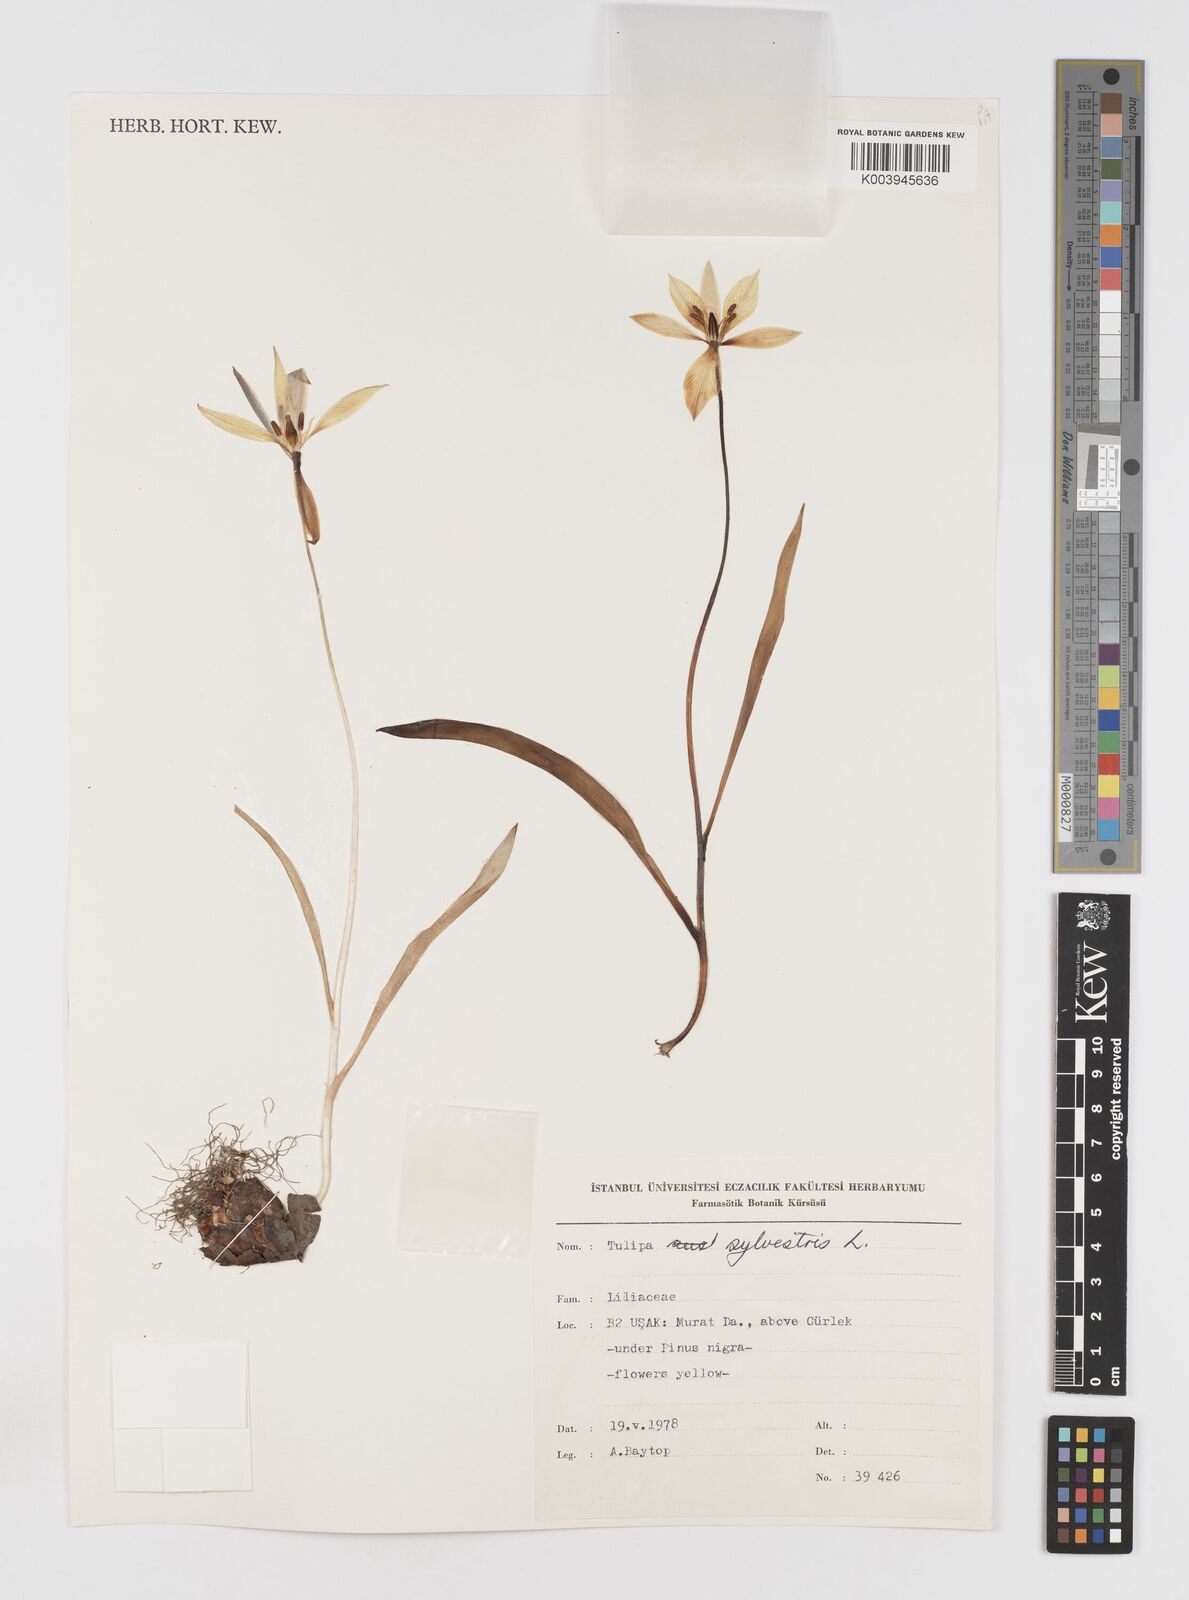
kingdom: Plantae
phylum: Tracheophyta
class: Liliopsida
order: Liliales
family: Liliaceae
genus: Tulipa
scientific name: Tulipa sylvestris
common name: Wild tulip
